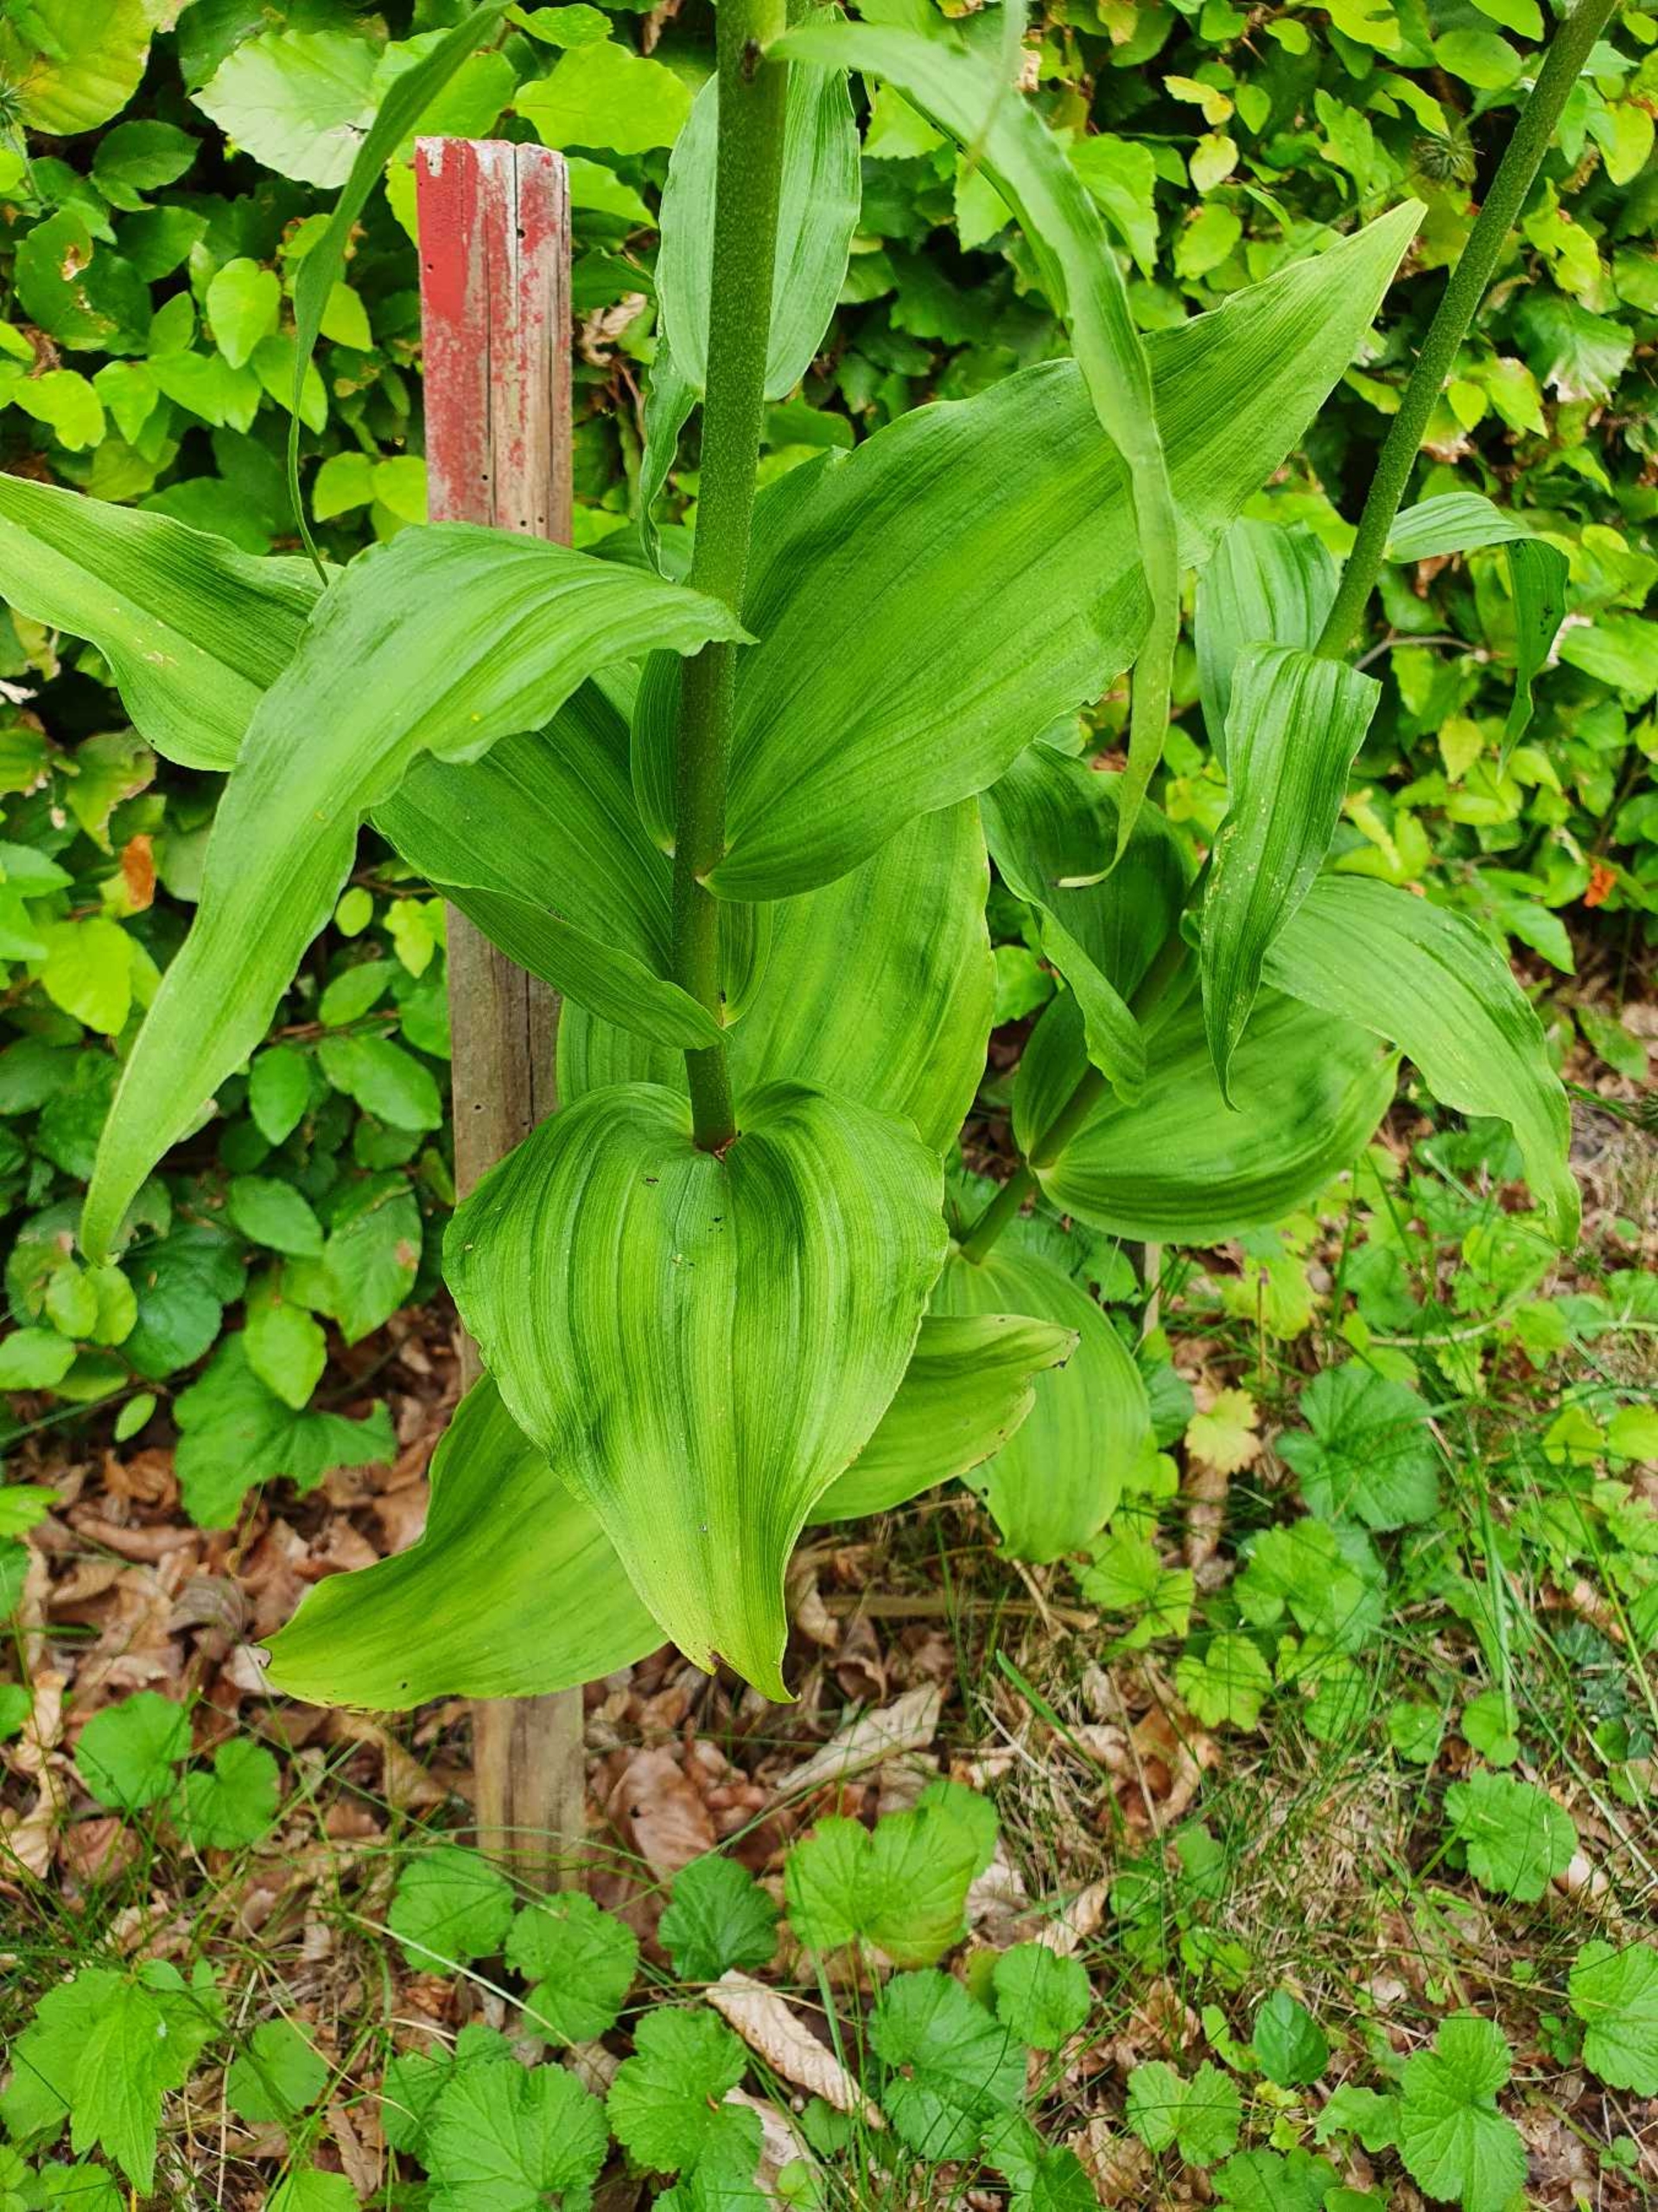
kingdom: Plantae
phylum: Tracheophyta
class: Liliopsida
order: Asparagales
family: Orchidaceae
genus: Epipactis
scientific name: Epipactis helleborine
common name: Skov-hullæbe
